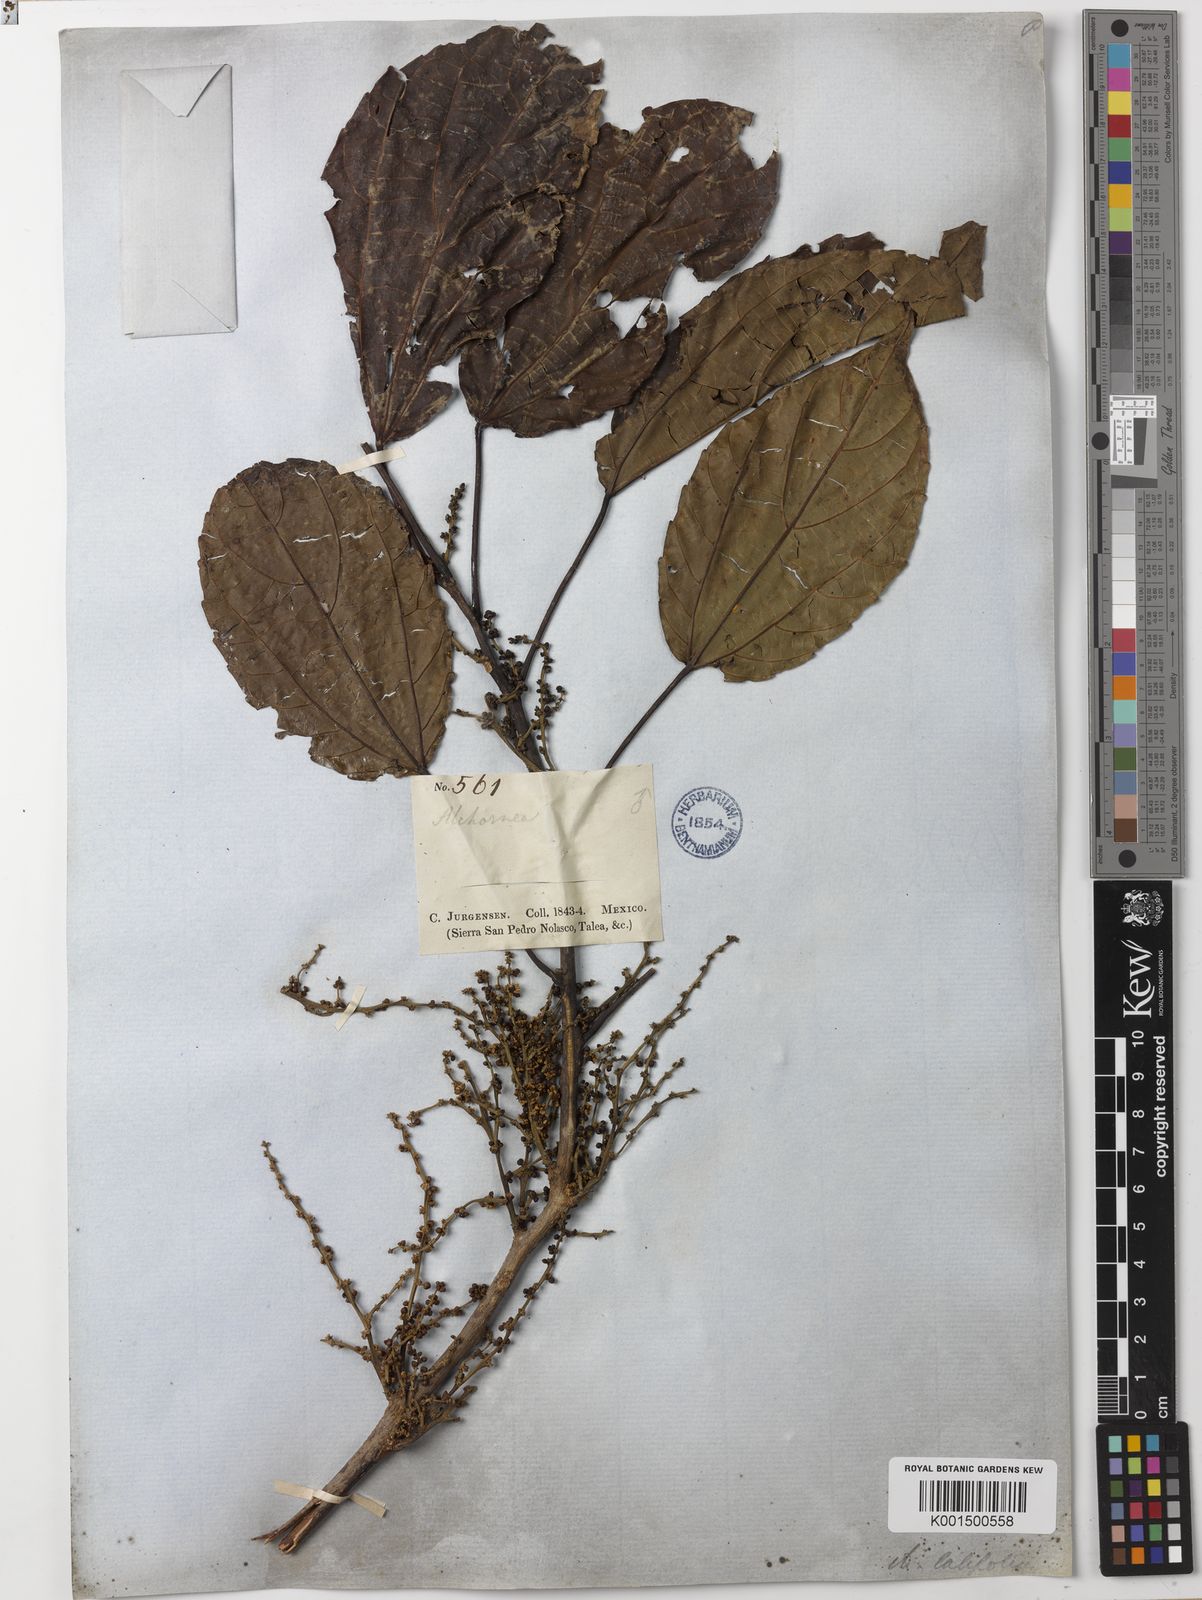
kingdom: Plantae
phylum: Tracheophyta
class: Magnoliopsida
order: Malpighiales
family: Euphorbiaceae
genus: Alchornea
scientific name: Alchornea megalophylla
